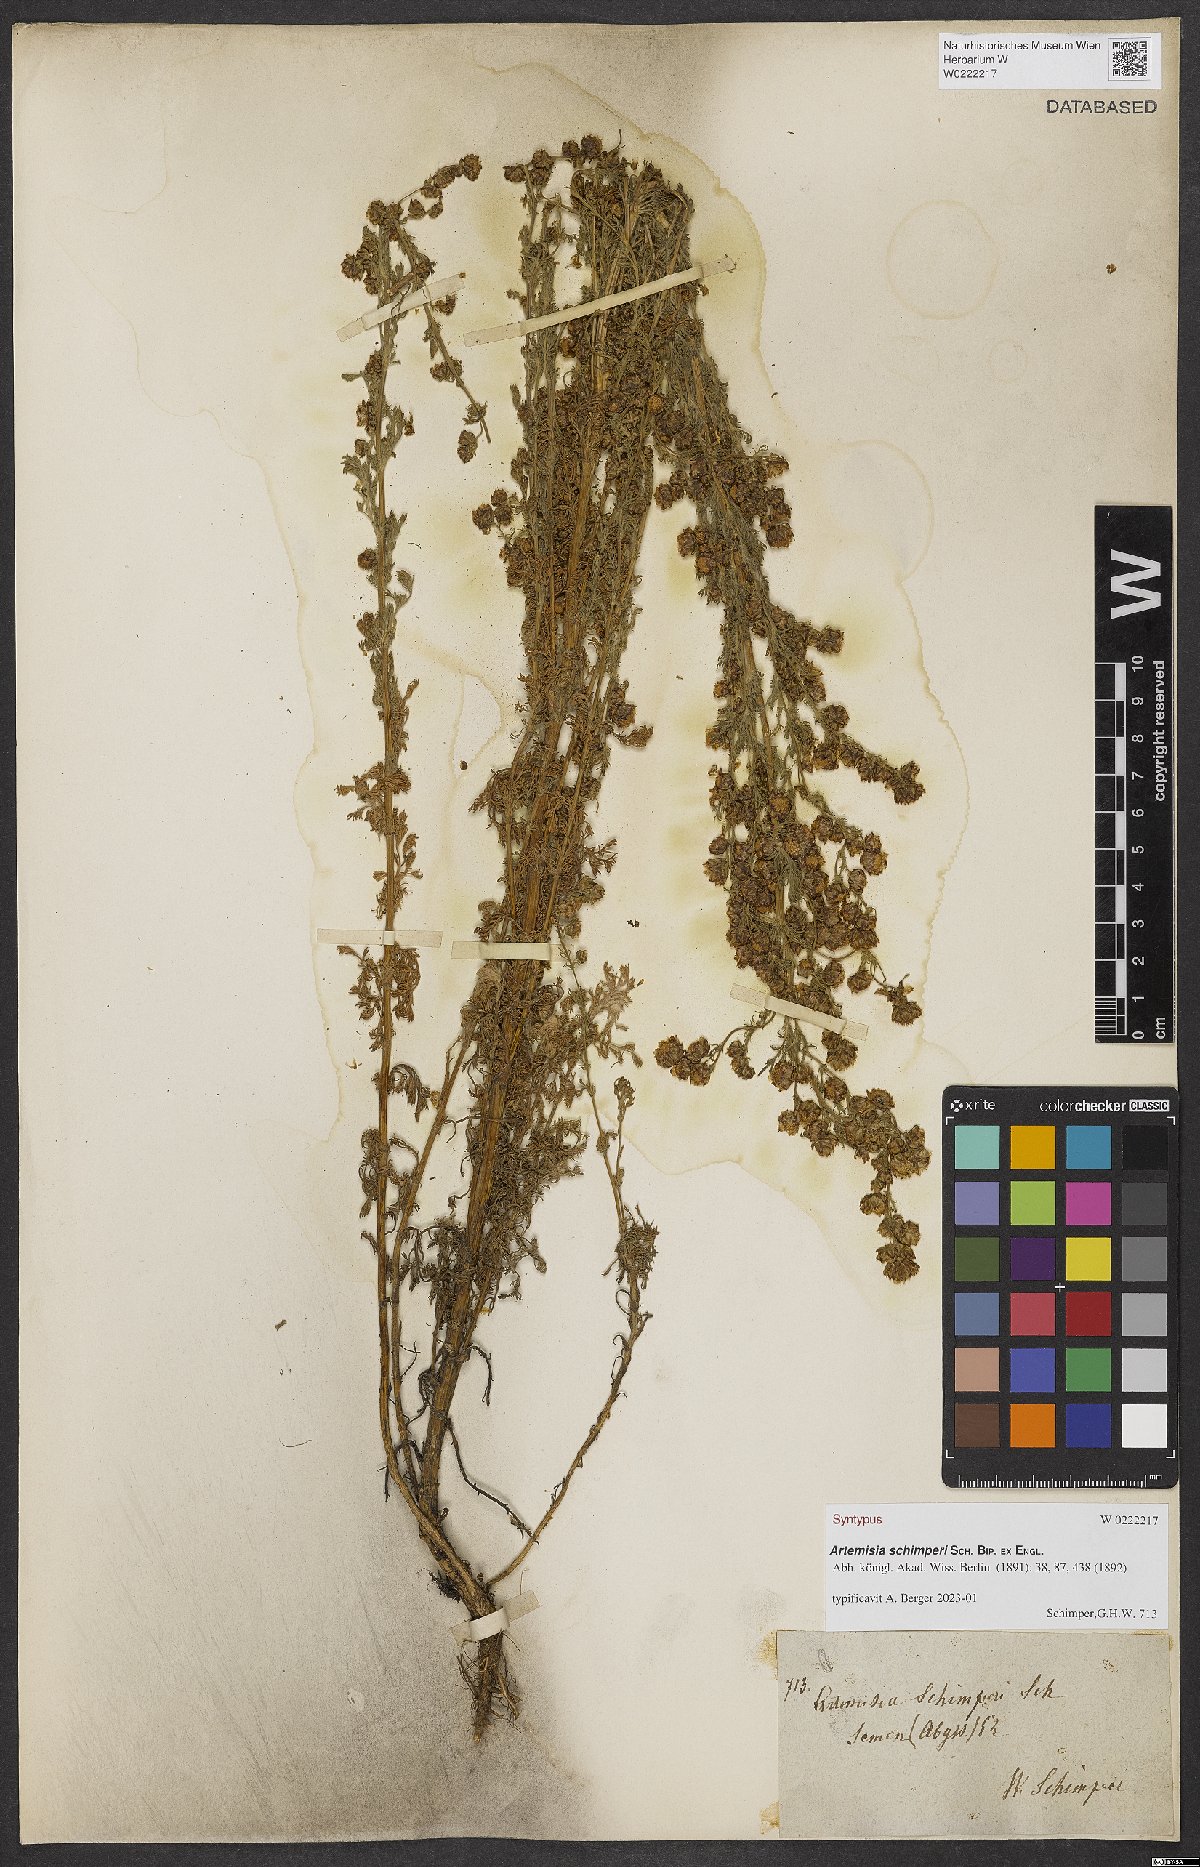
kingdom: Plantae
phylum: Tracheophyta
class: Magnoliopsida
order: Asterales
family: Asteraceae
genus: Artemisia
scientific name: Artemisia schimperi
